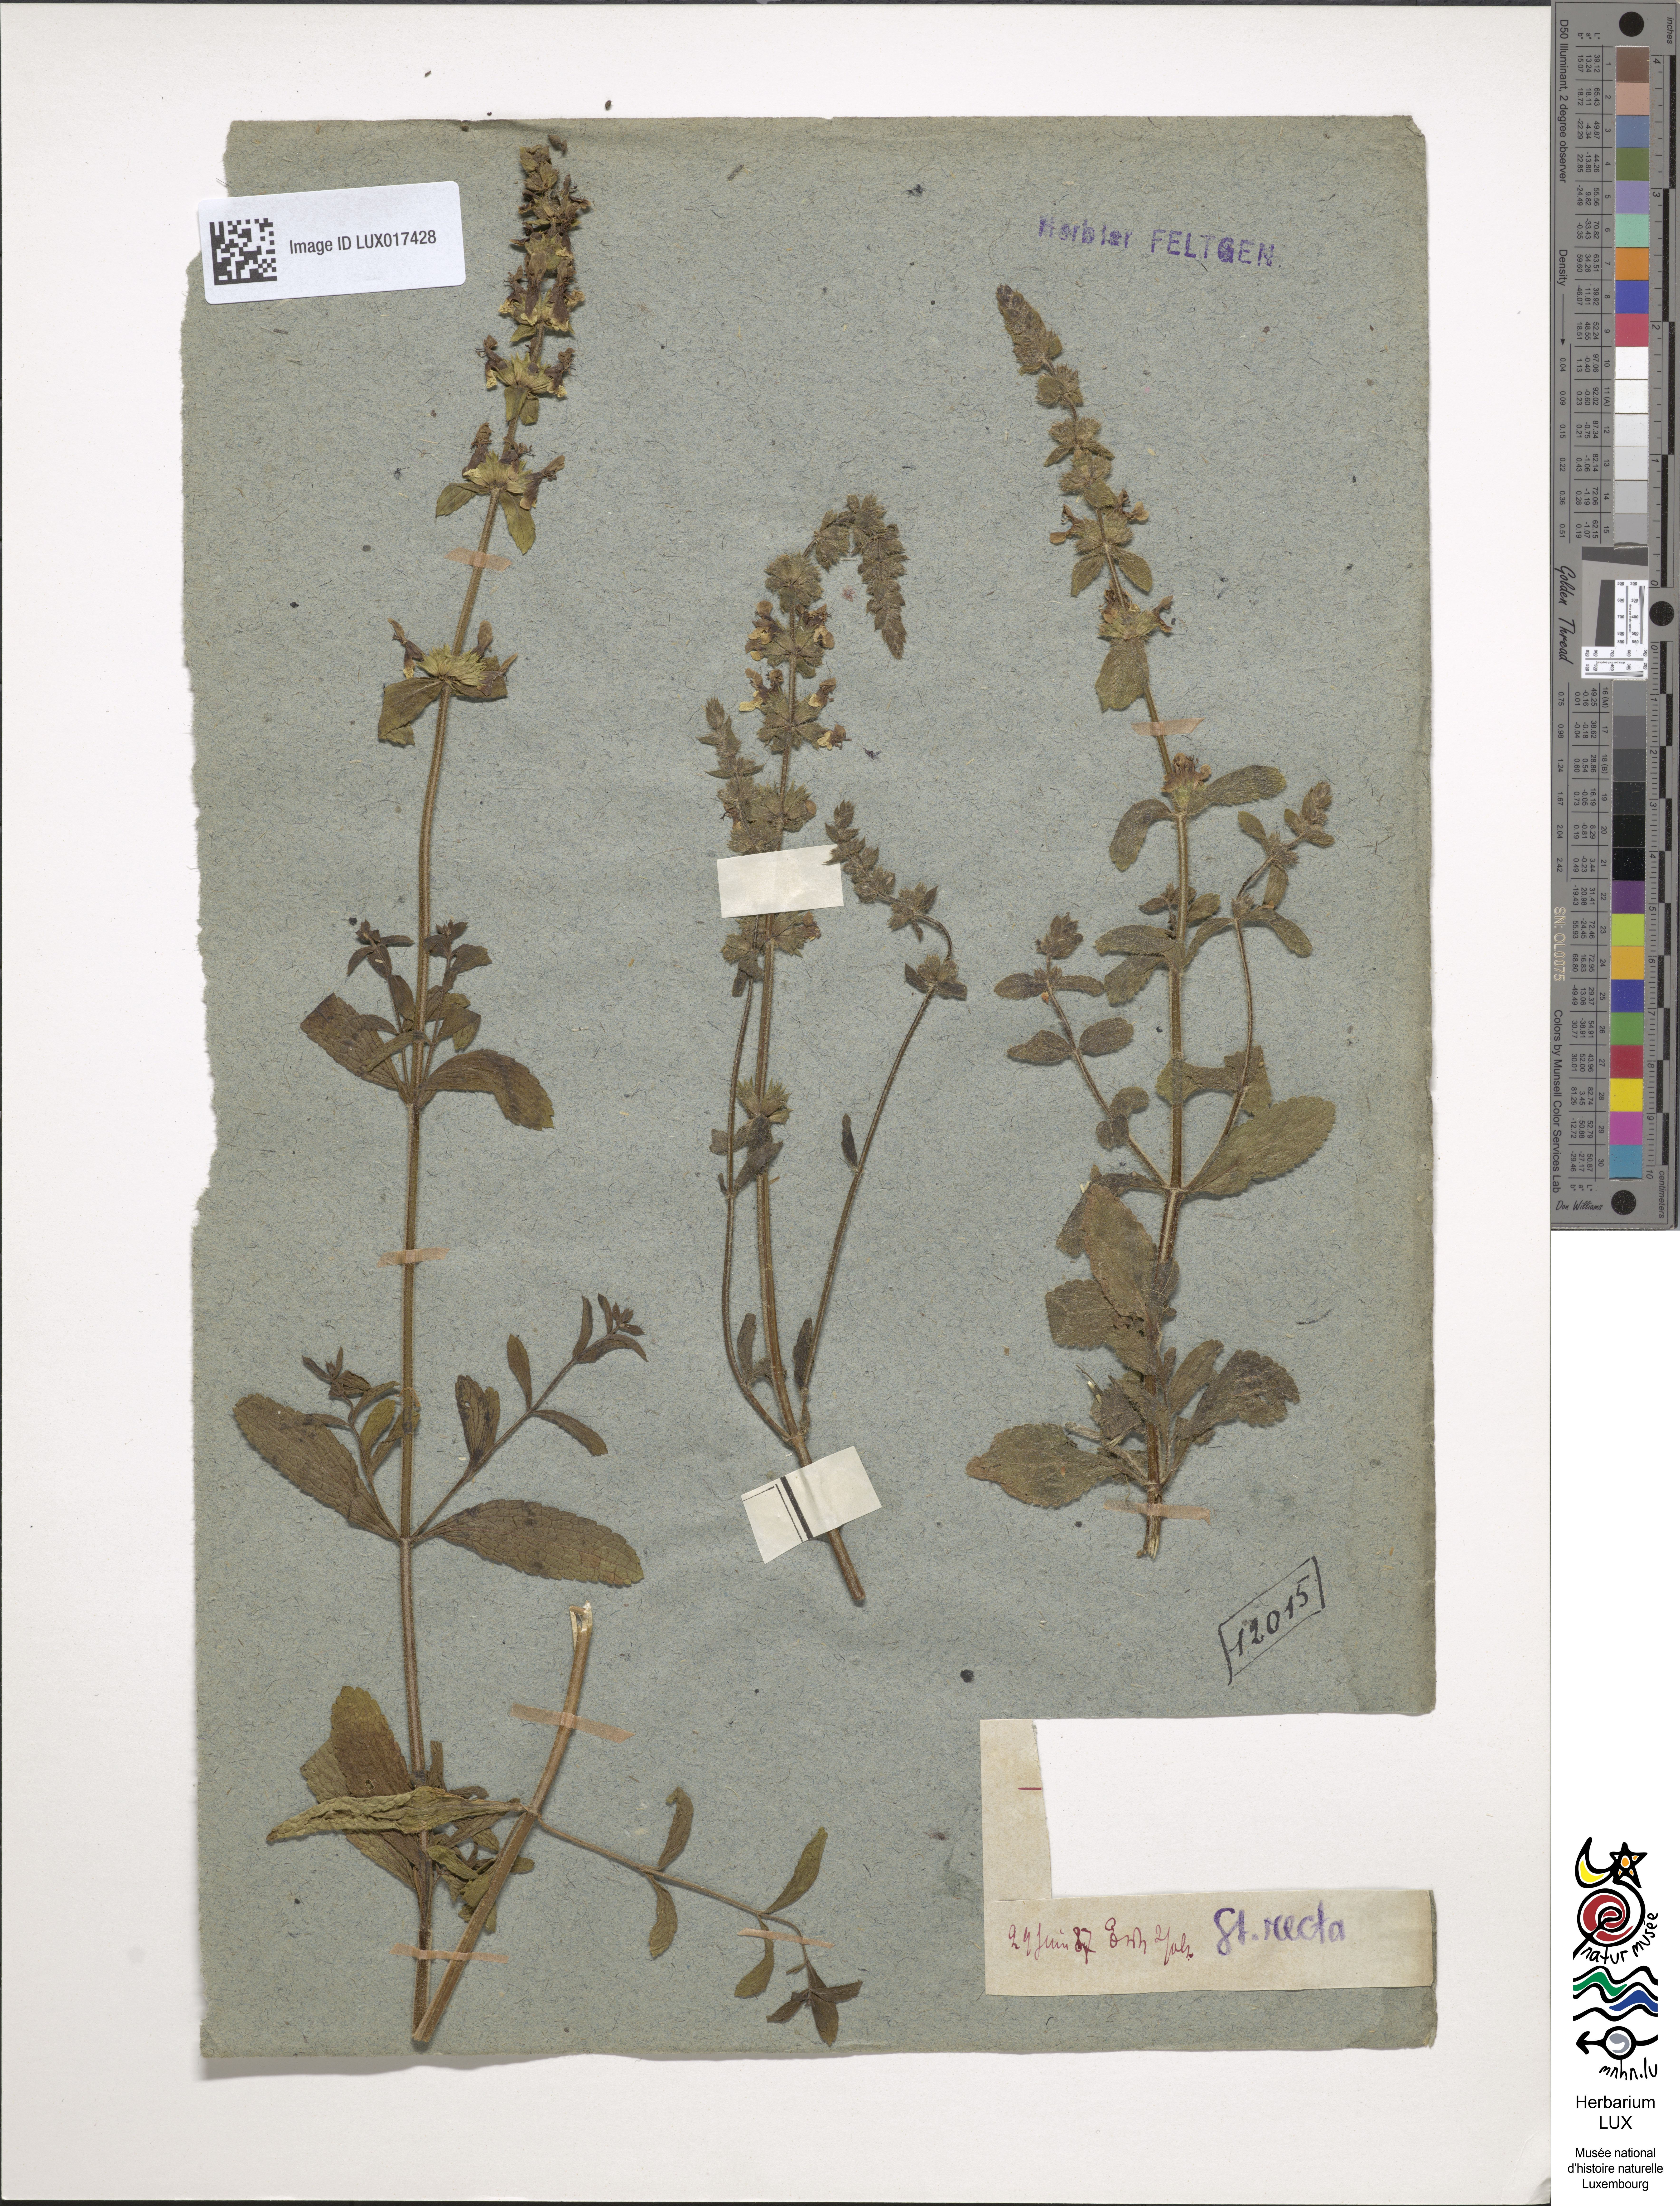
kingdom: Plantae
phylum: Tracheophyta
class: Magnoliopsida
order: Lamiales
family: Lamiaceae
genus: Stachys
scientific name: Stachys recta
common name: Perennial yellow-woundwort
